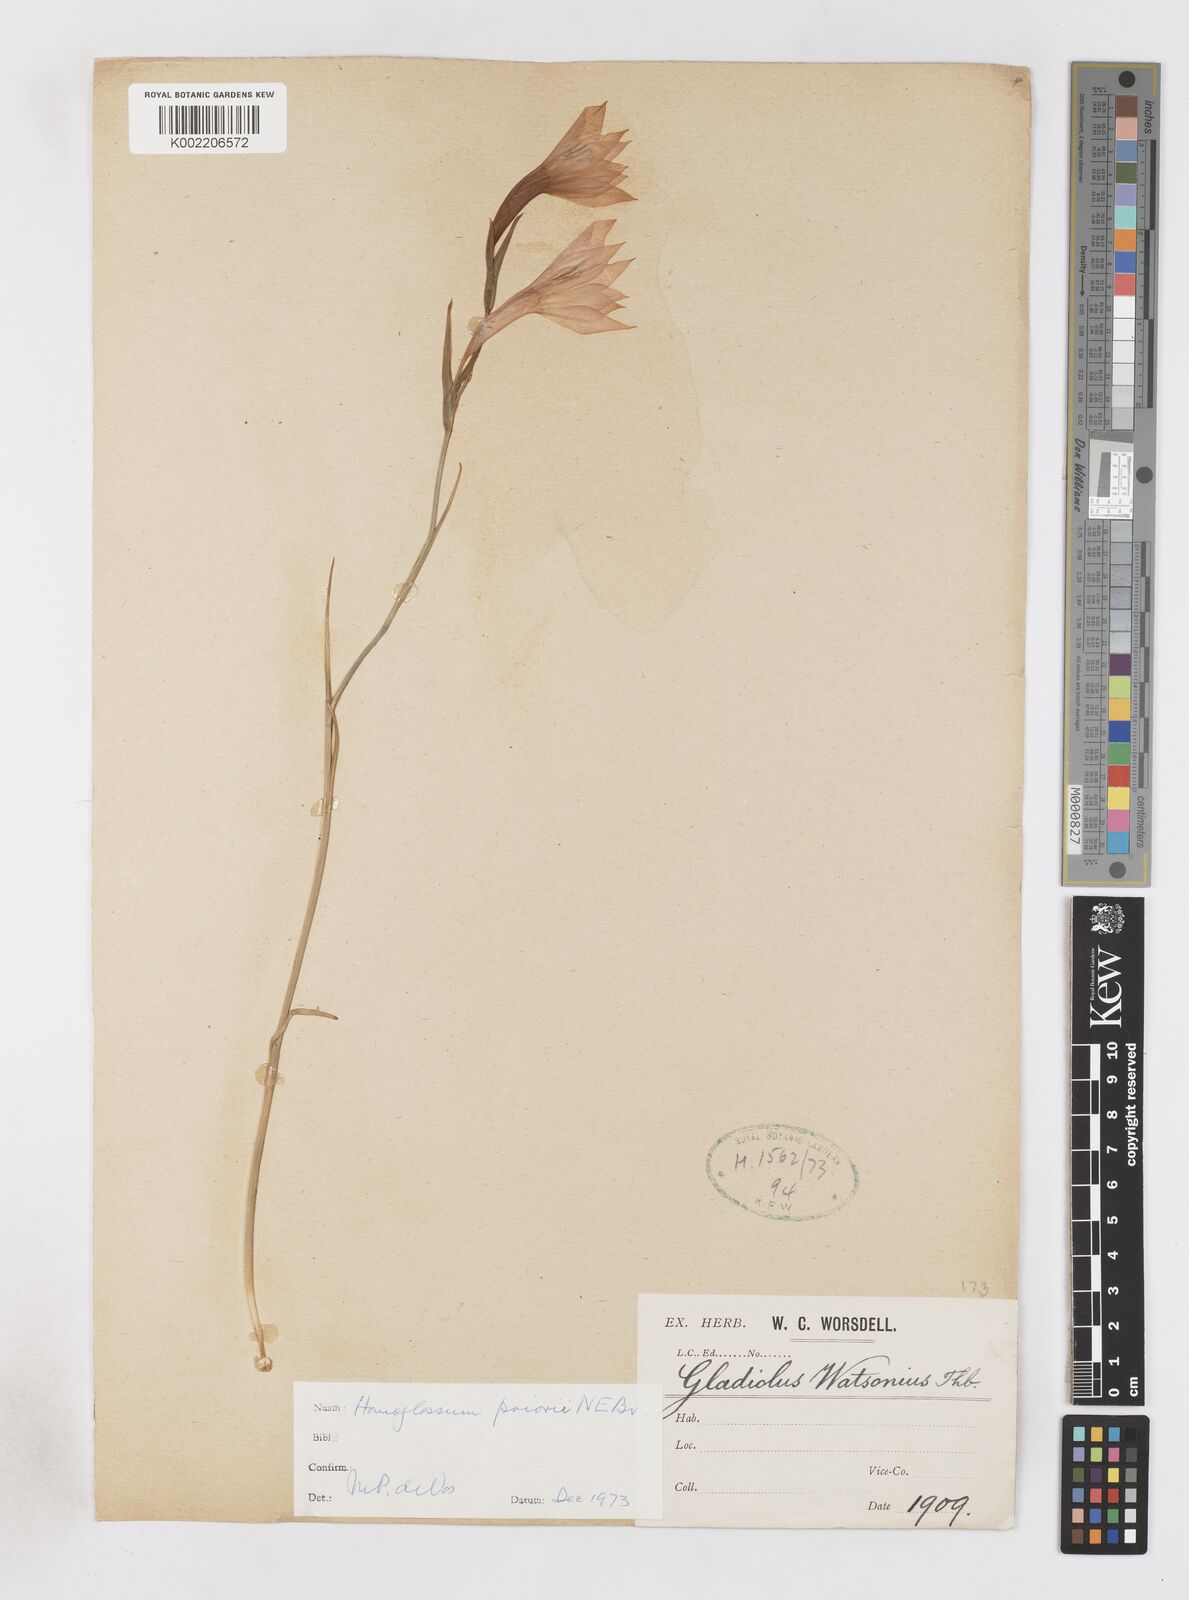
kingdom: Plantae
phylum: Tracheophyta
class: Liliopsida
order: Asparagales
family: Iridaceae
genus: Gladiolus
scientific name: Gladiolus priorii
